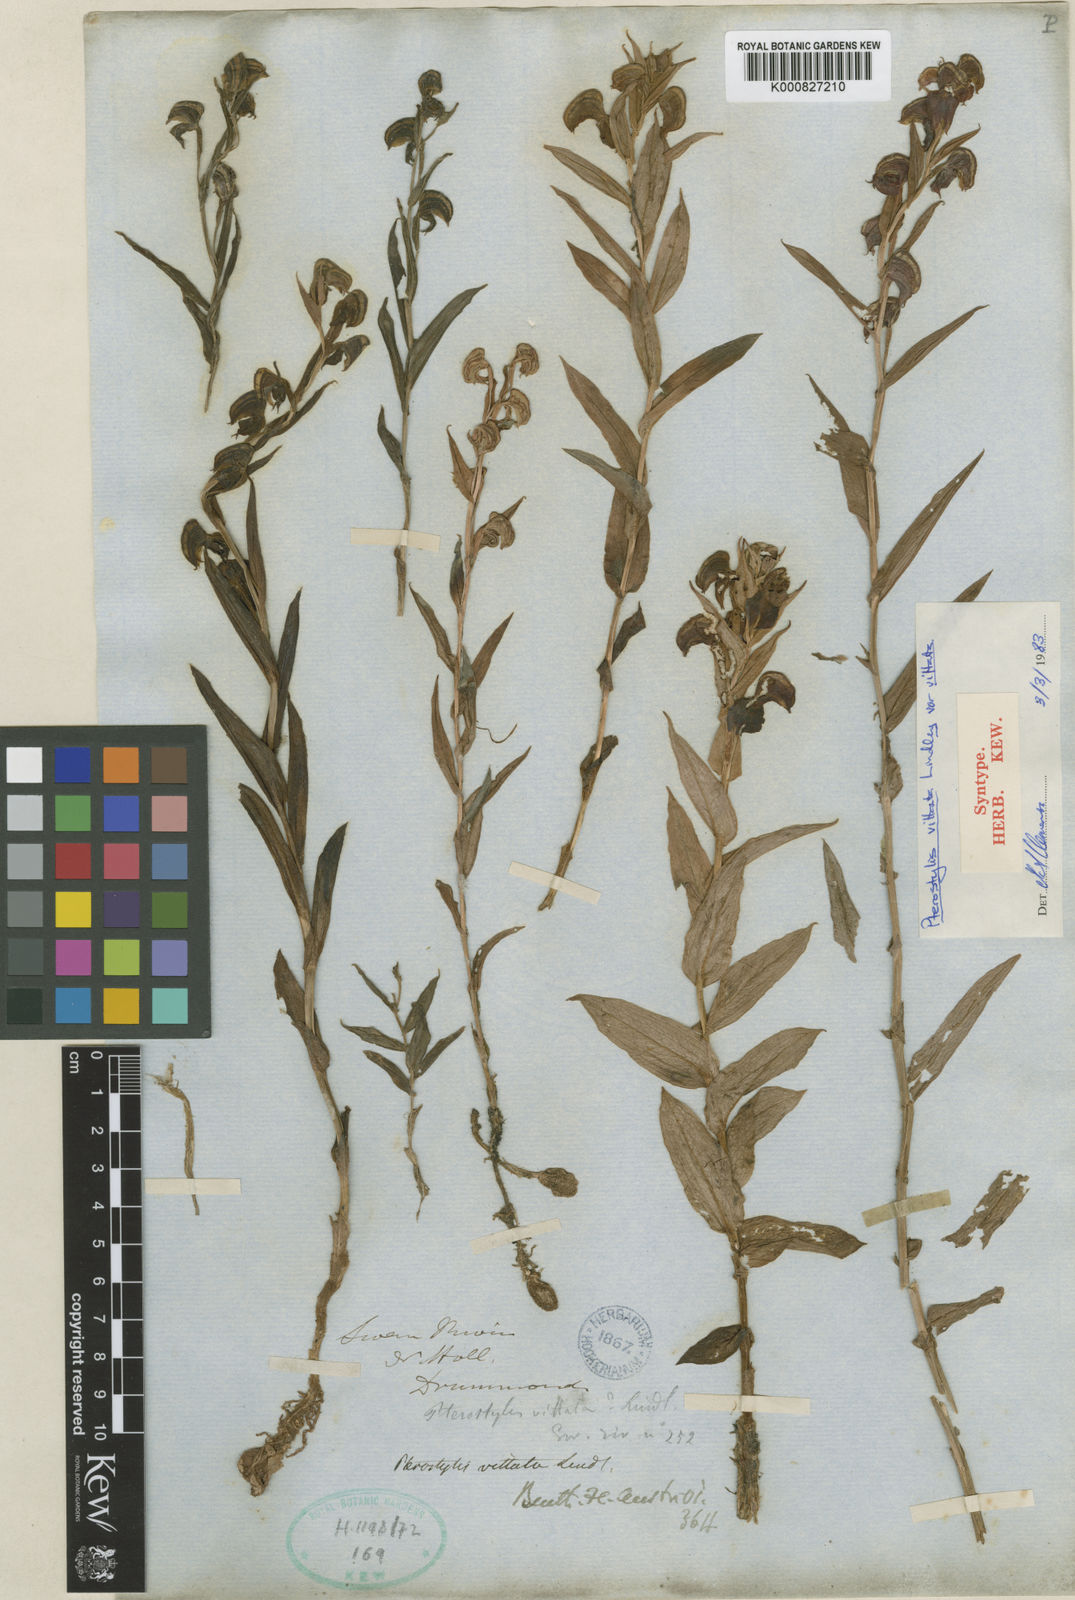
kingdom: Plantae
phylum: Tracheophyta
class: Liliopsida
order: Asparagales
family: Orchidaceae
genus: Pterostylis
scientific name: Pterostylis vittata
